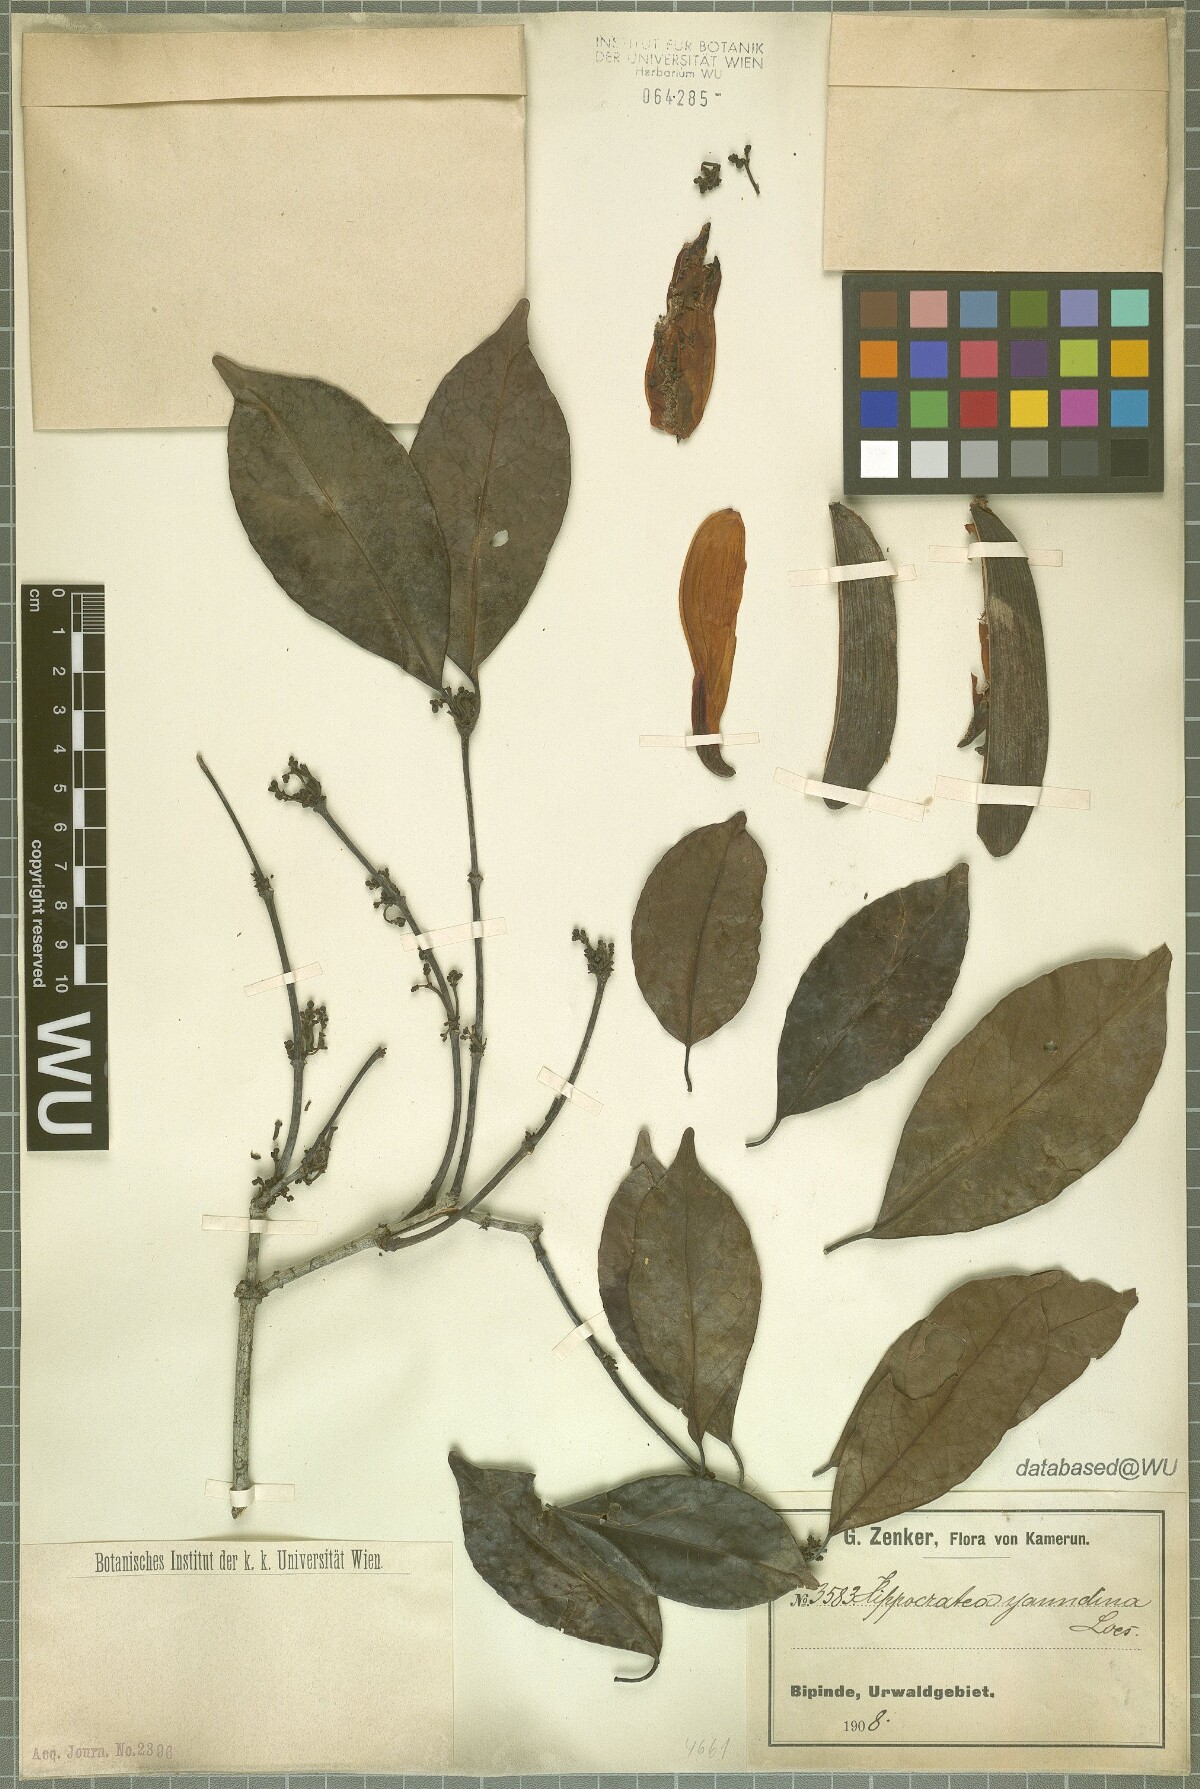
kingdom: Plantae
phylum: Tracheophyta
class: Magnoliopsida
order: Celastrales
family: Celastraceae
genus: Loeseneriella
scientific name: Loeseneriella yaundina
